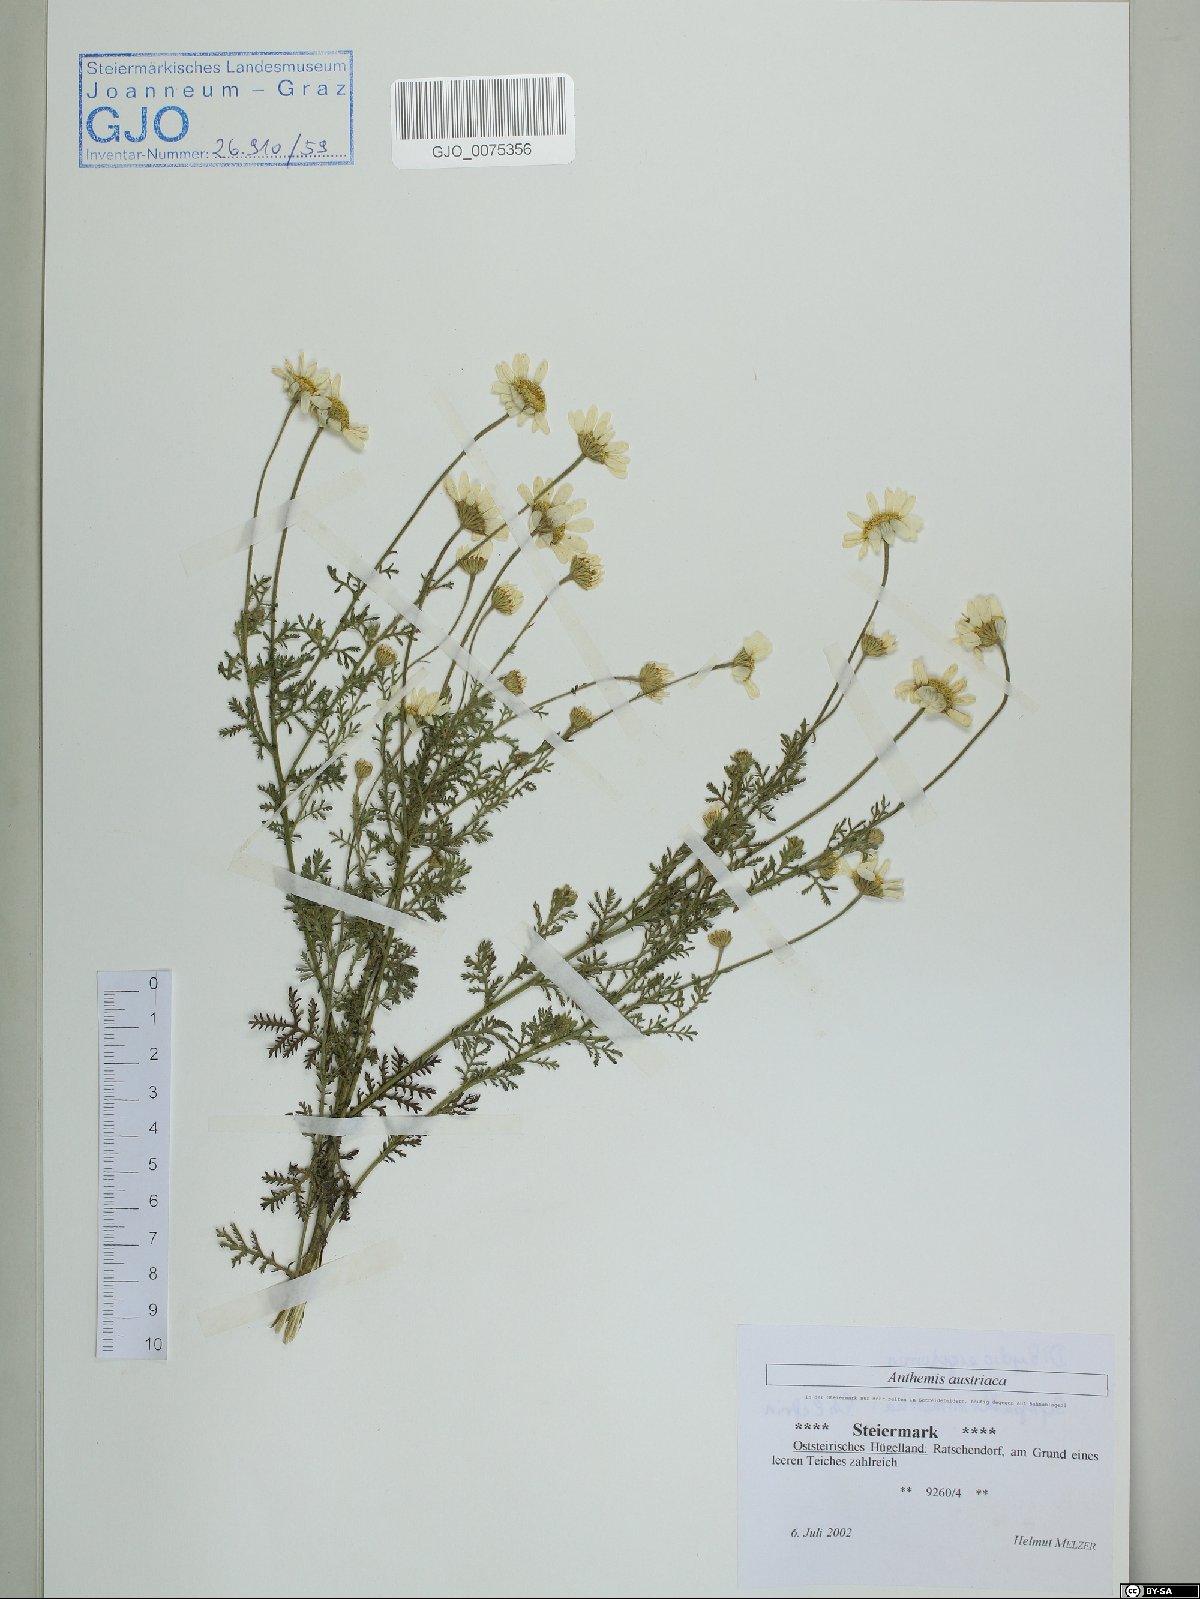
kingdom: Plantae
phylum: Tracheophyta
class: Magnoliopsida
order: Asterales
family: Asteraceae
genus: Cota
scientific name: Cota austriaca
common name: Austrian chamomile
